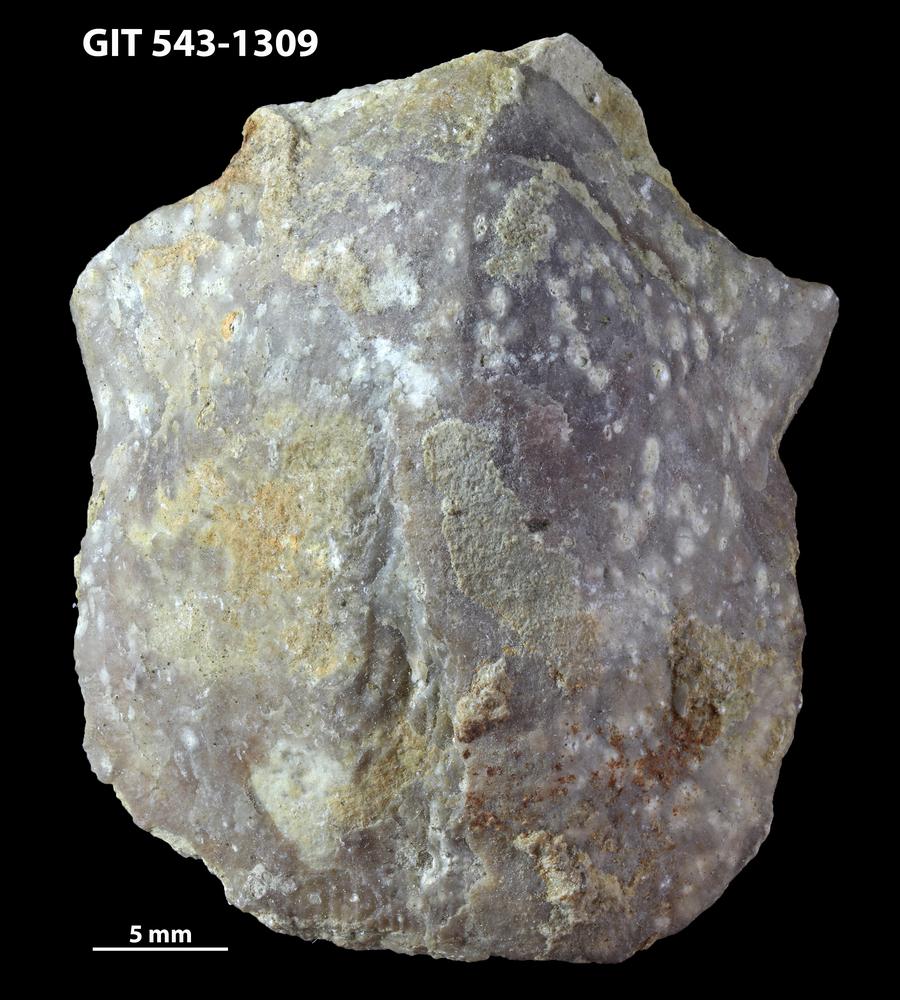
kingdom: Animalia
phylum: Brachiopoda
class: Rhynchonellata
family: Clitambonitidae
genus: Vellamo
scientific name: Vellamo
